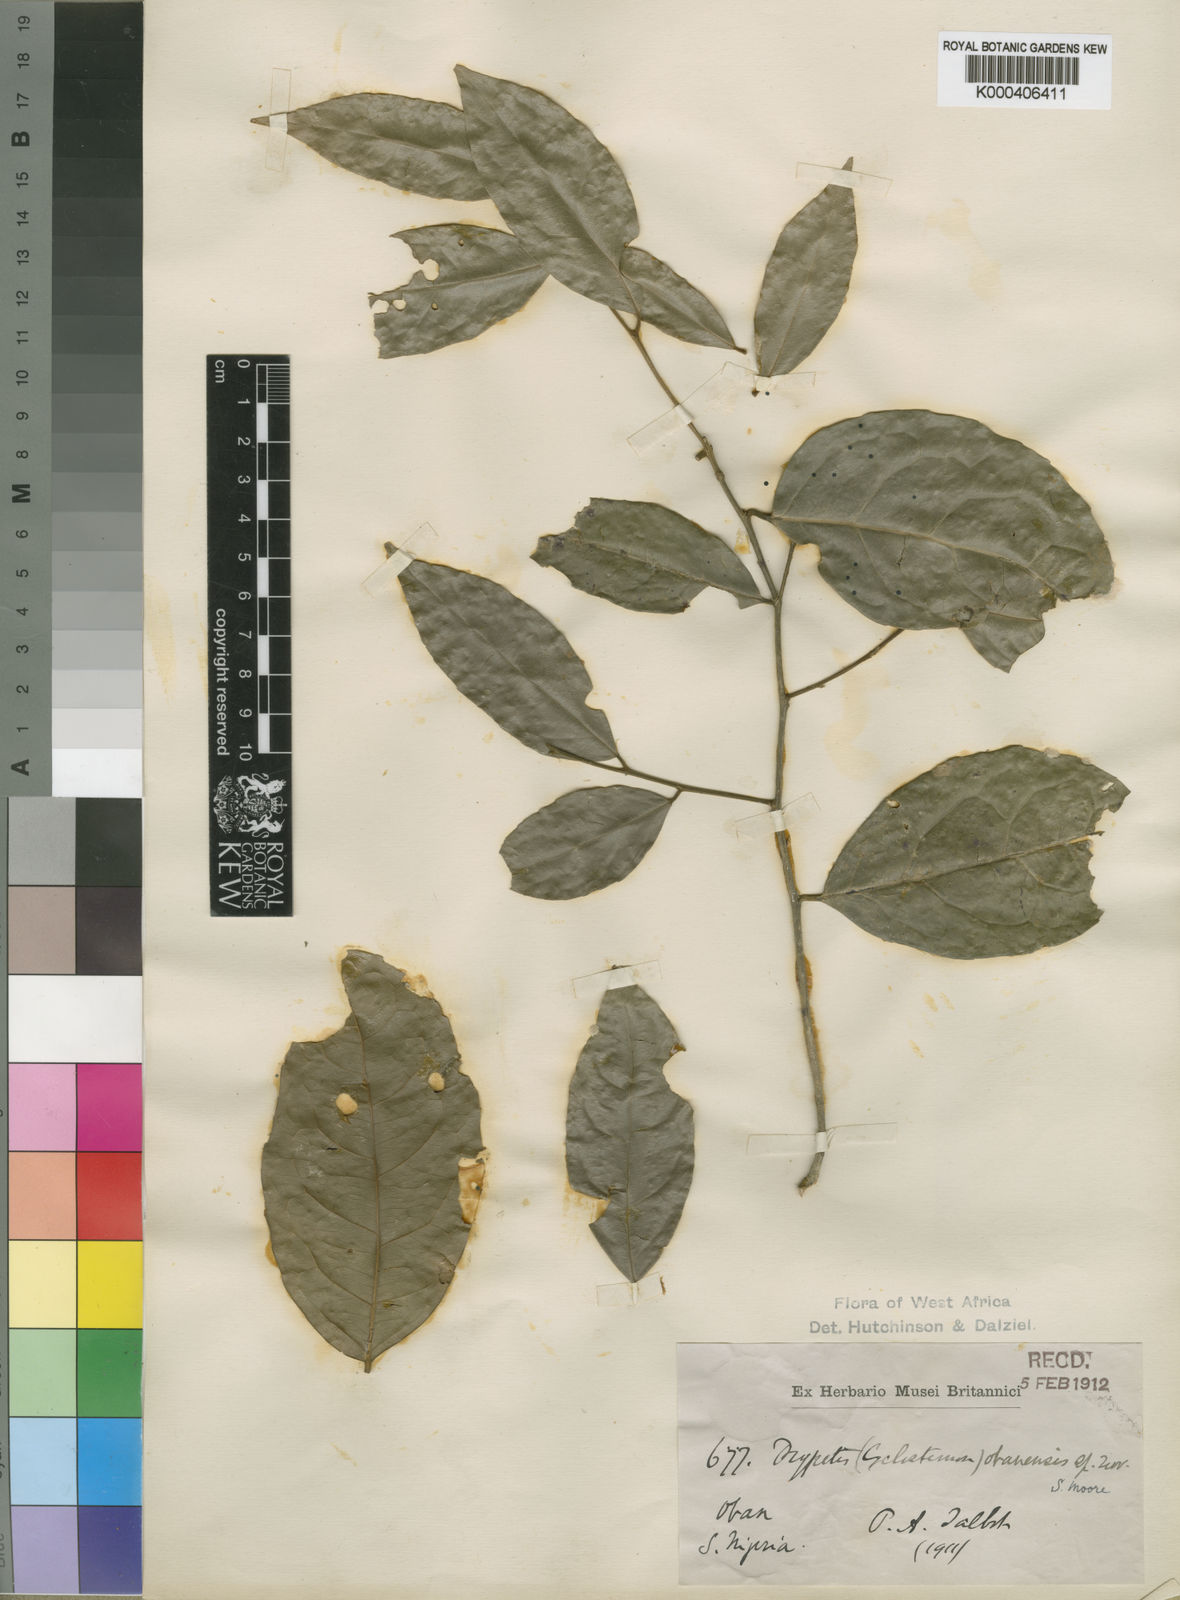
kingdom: Plantae
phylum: Tracheophyta
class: Magnoliopsida
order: Malpighiales
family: Putranjivaceae
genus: Drypetes
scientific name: Drypetes obanensis
